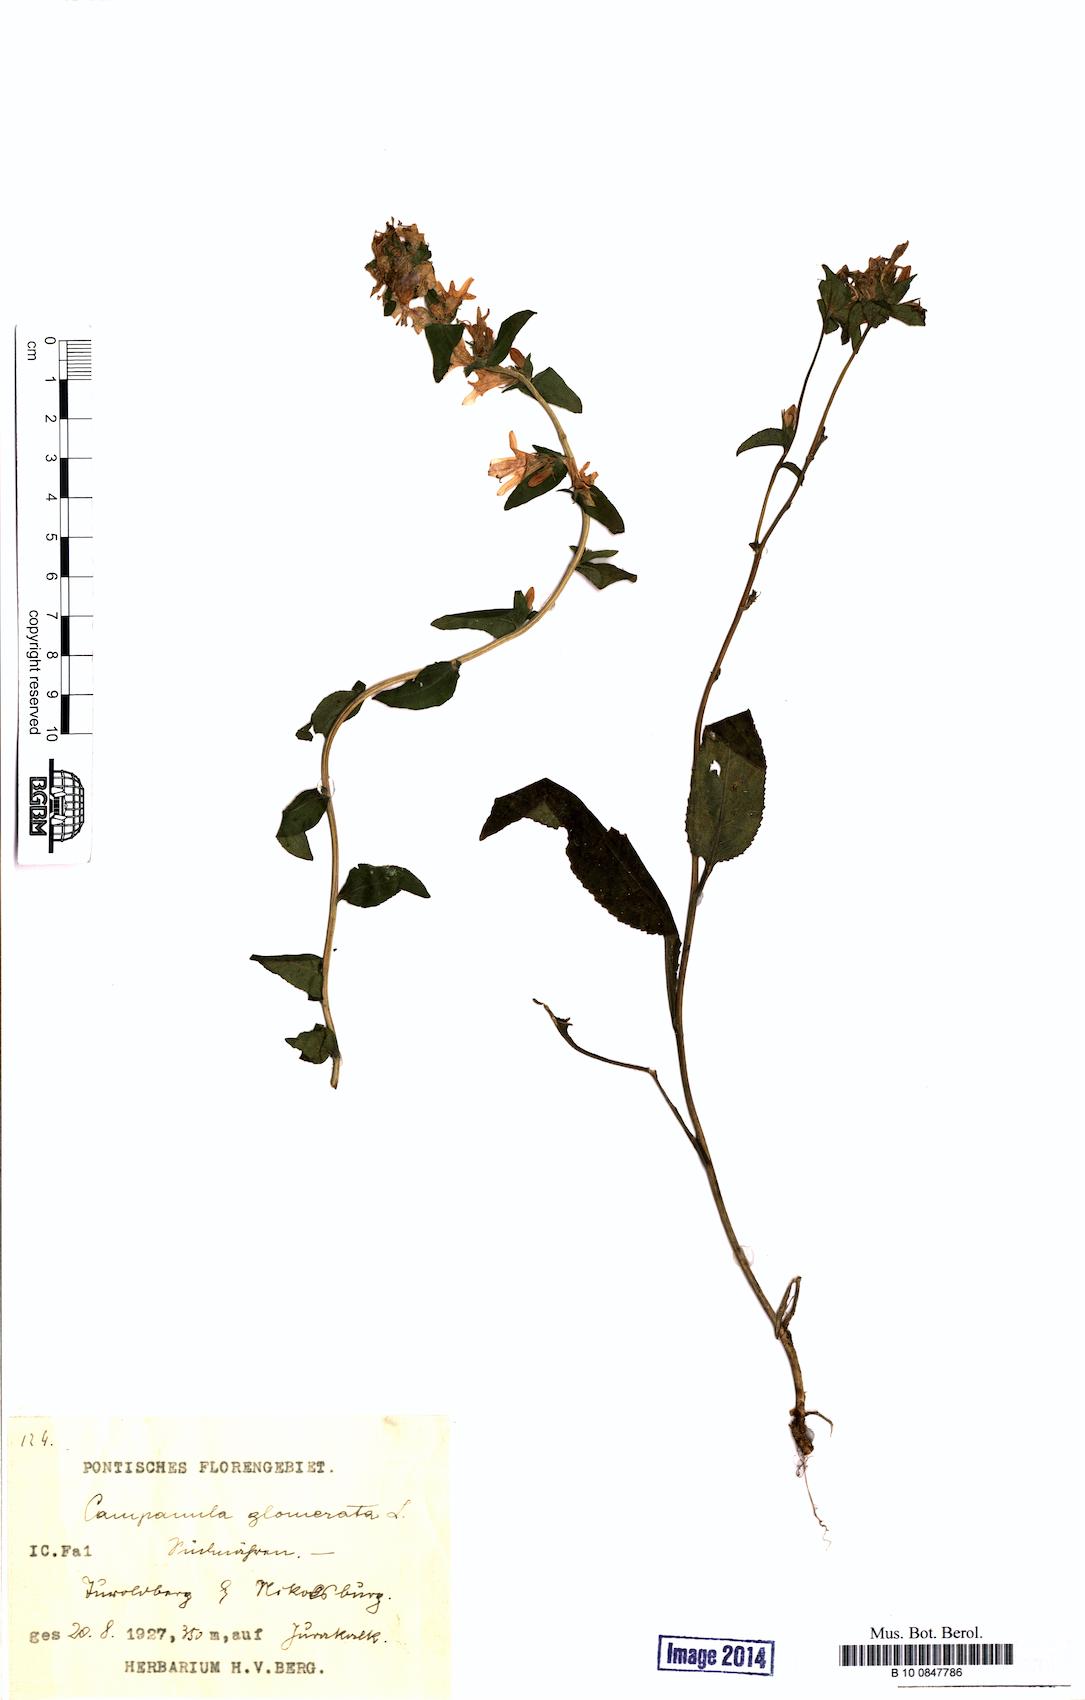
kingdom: Plantae
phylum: Tracheophyta
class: Magnoliopsida
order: Asterales
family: Campanulaceae
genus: Campanula
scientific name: Campanula glomerata
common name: Clustered bellflower
